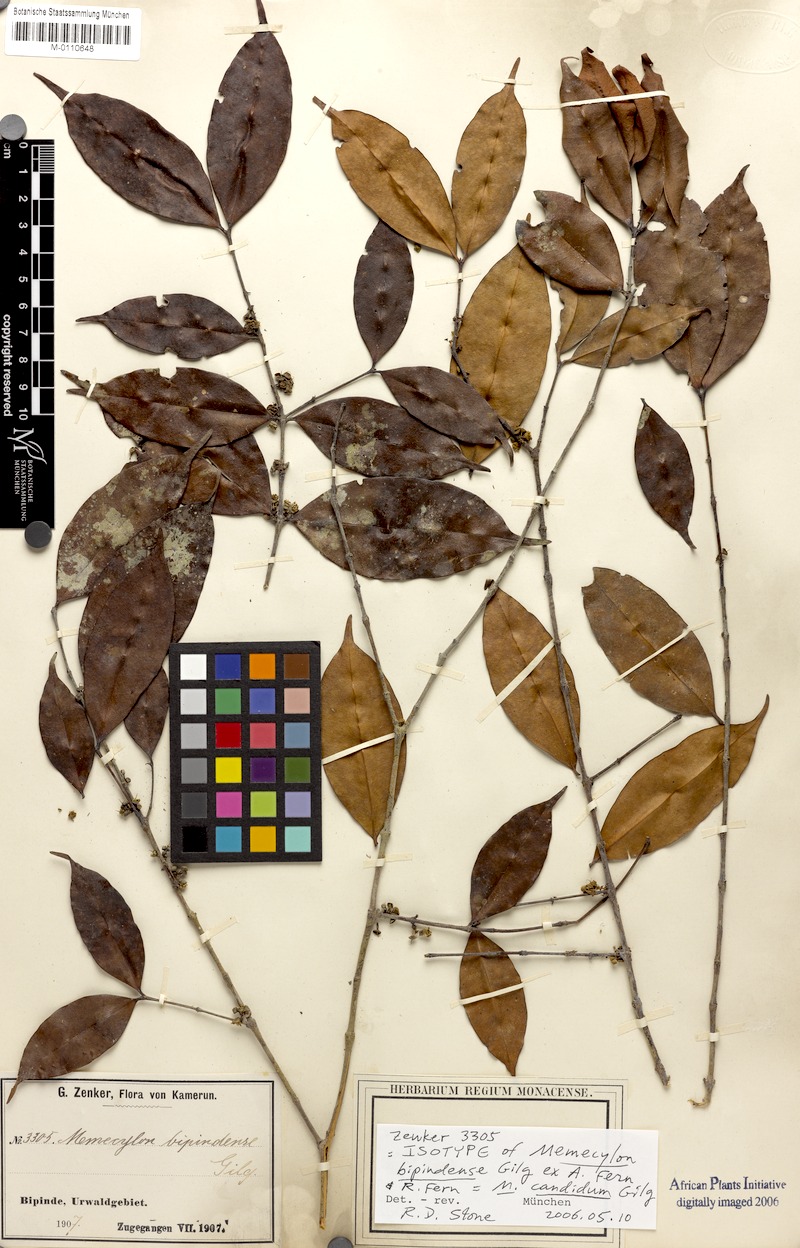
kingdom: Plantae
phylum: Tracheophyta
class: Magnoliopsida
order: Myrtales
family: Melastomataceae
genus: Memecylon
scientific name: Memecylon candidum
